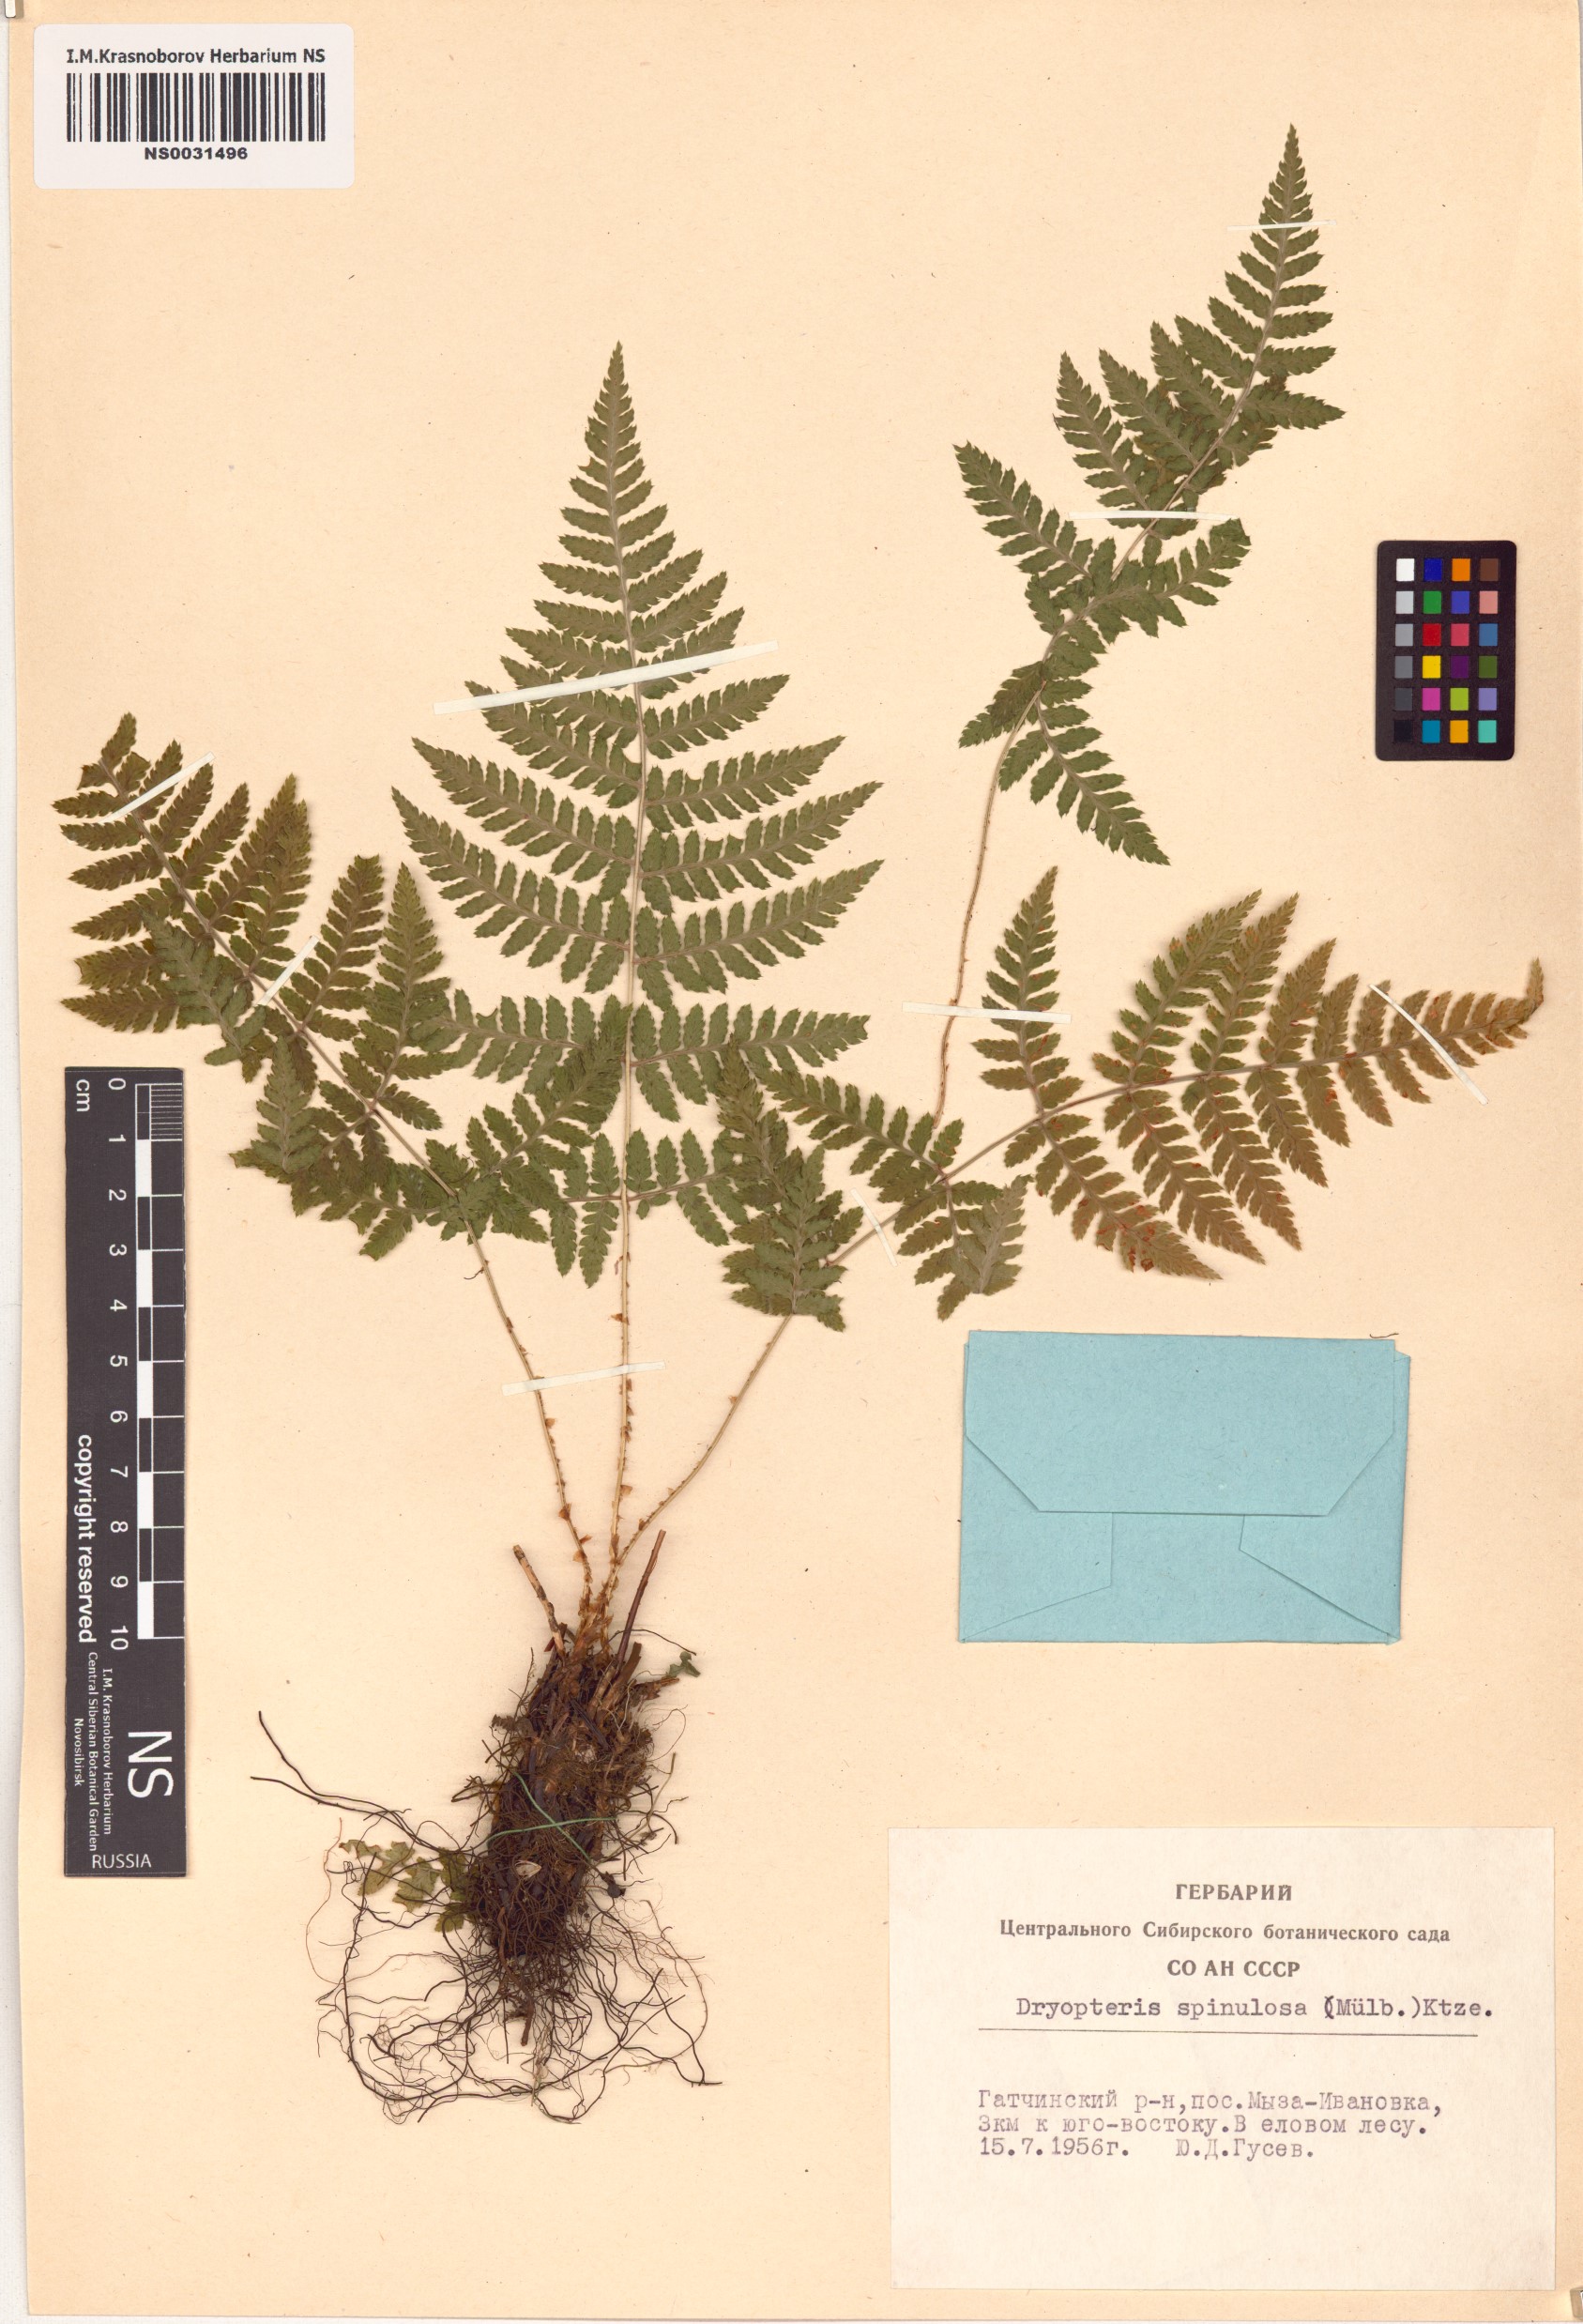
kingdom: Plantae
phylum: Tracheophyta
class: Polypodiopsida
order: Polypodiales
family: Dryopteridaceae
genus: Dryopteris
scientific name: Dryopteris carthusiana
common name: Narrow buckler-fern
